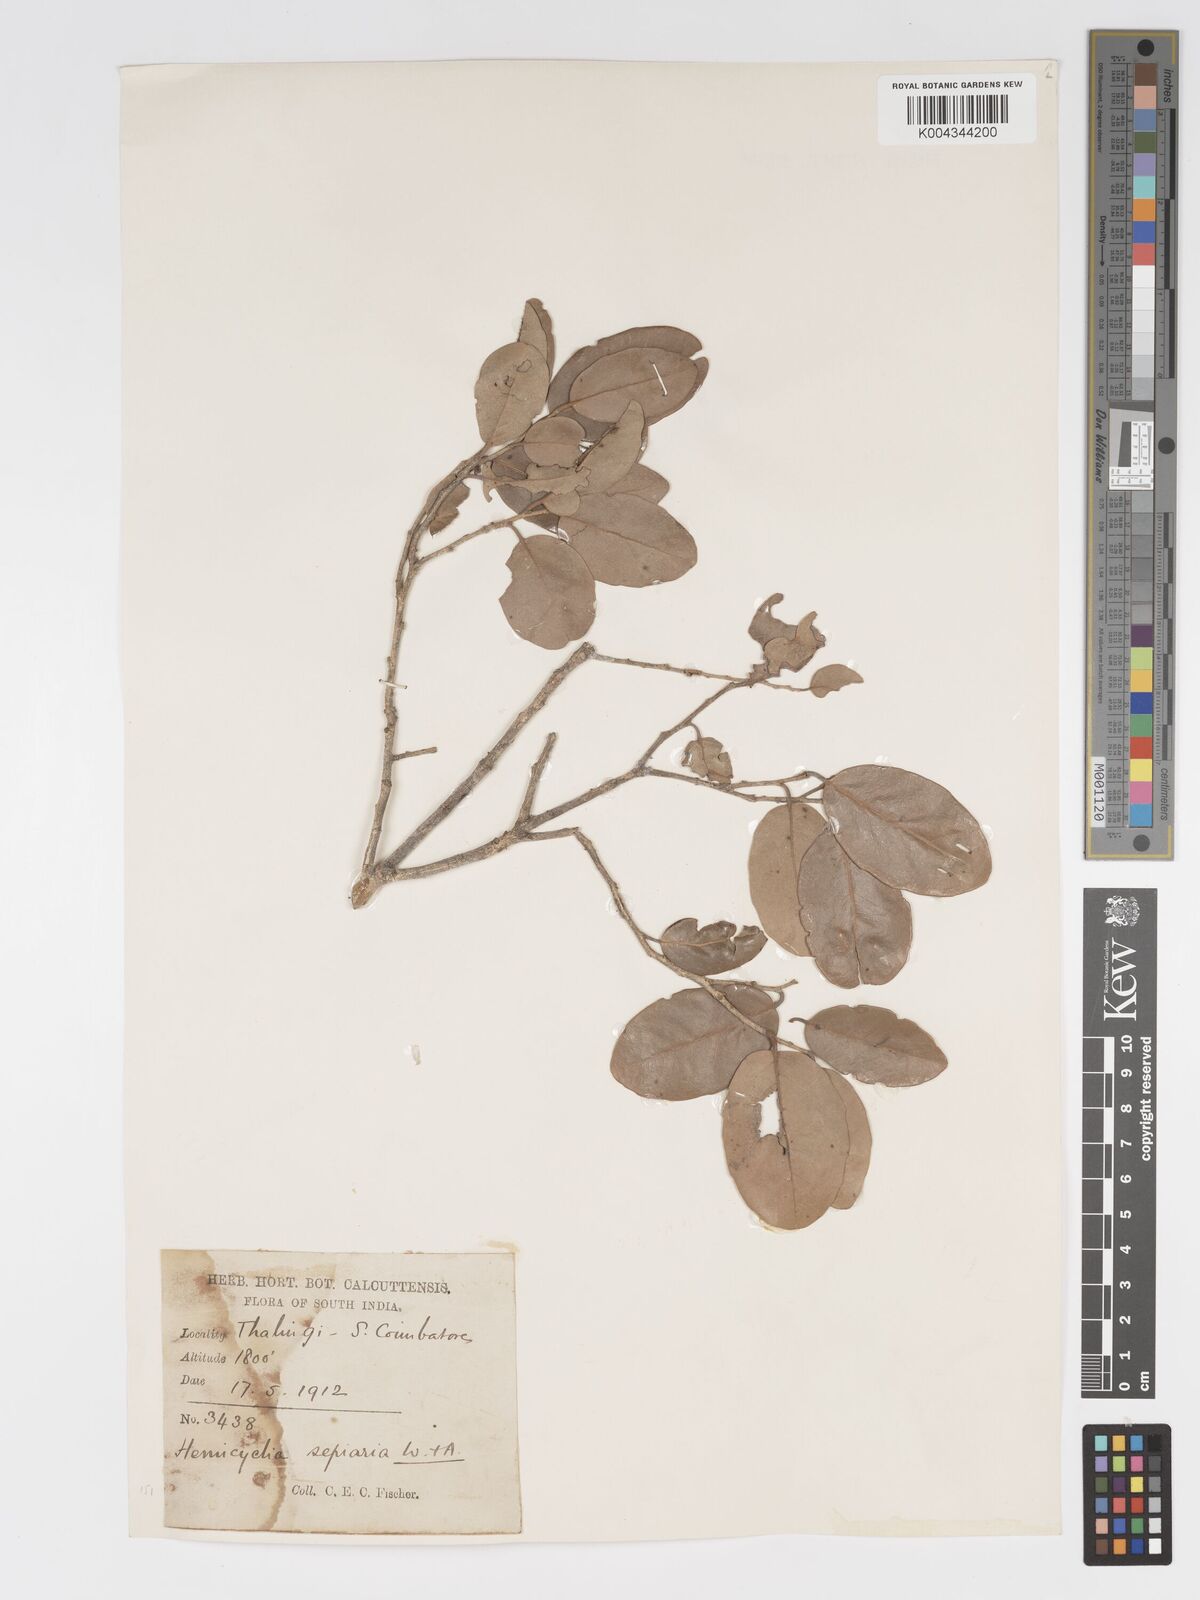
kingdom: Plantae
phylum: Tracheophyta
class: Magnoliopsida
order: Malpighiales
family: Putranjivaceae
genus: Drypetes
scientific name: Drypetes sepiaria
